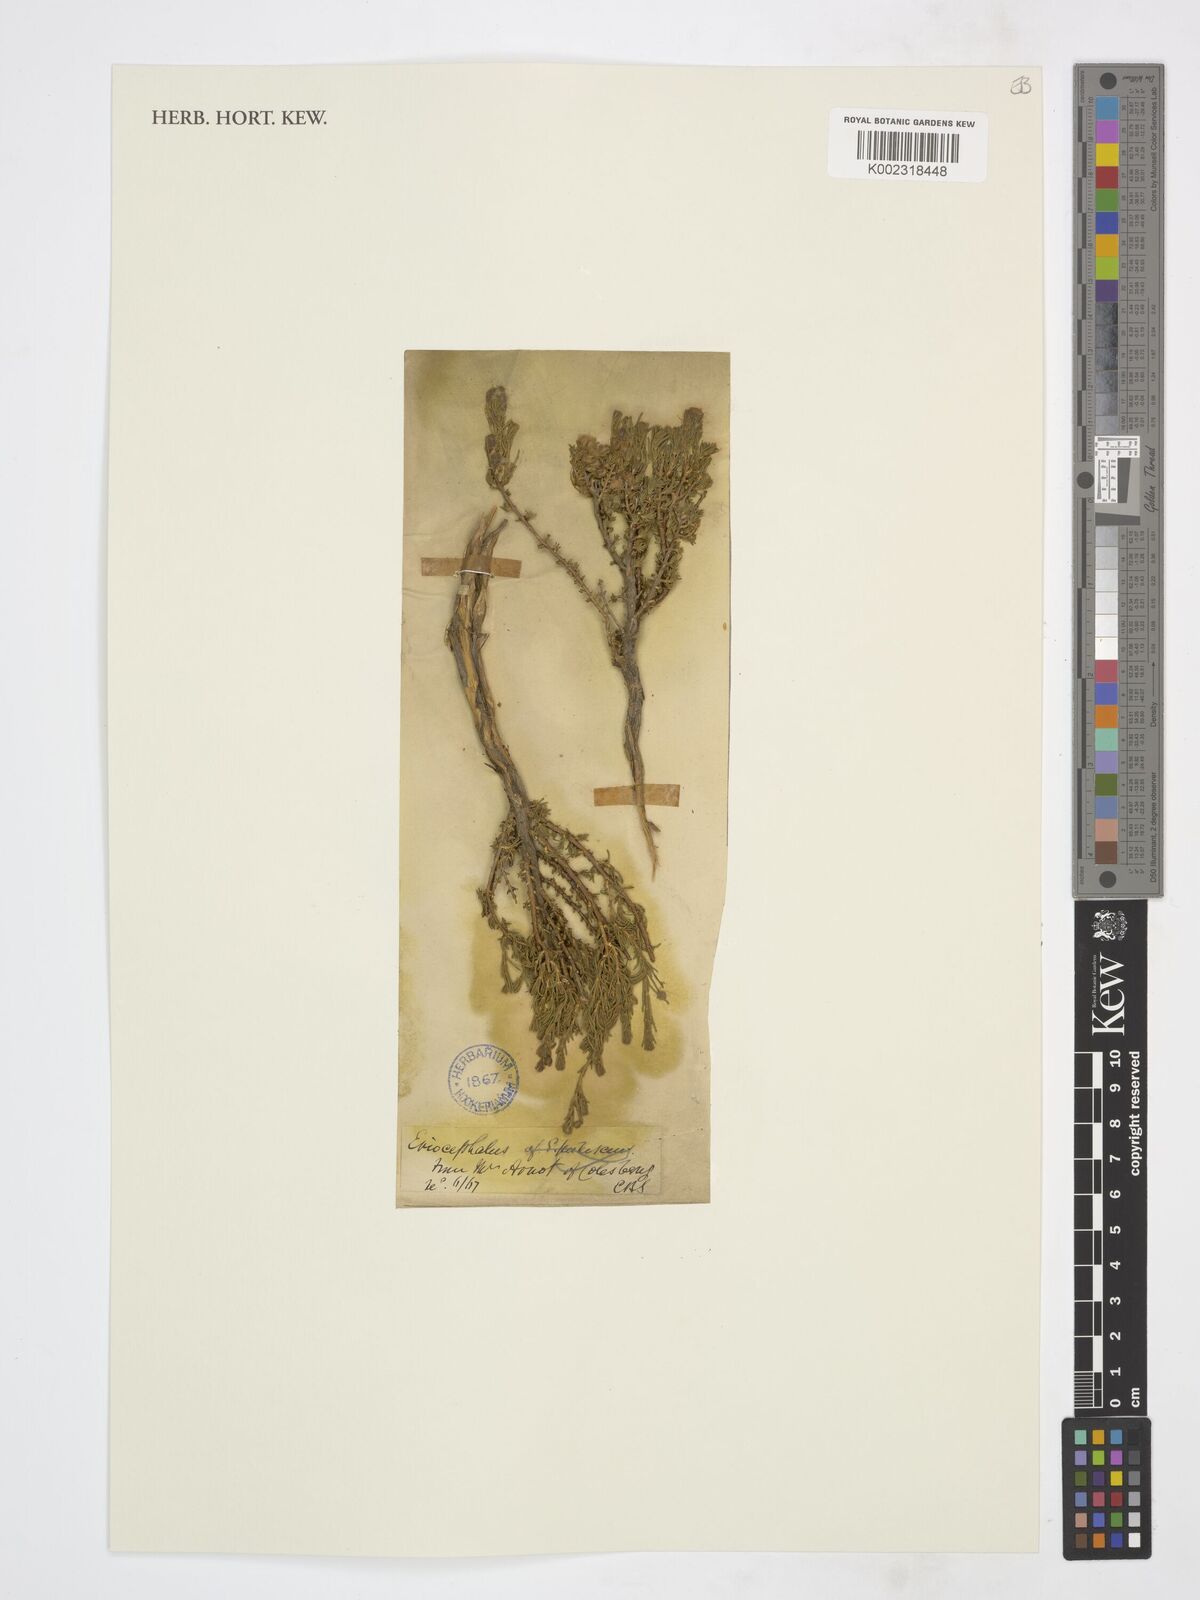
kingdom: Plantae
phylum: Tracheophyta
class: Magnoliopsida
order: Asterales
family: Asteraceae
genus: Eriocephalus
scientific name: Eriocephalus
